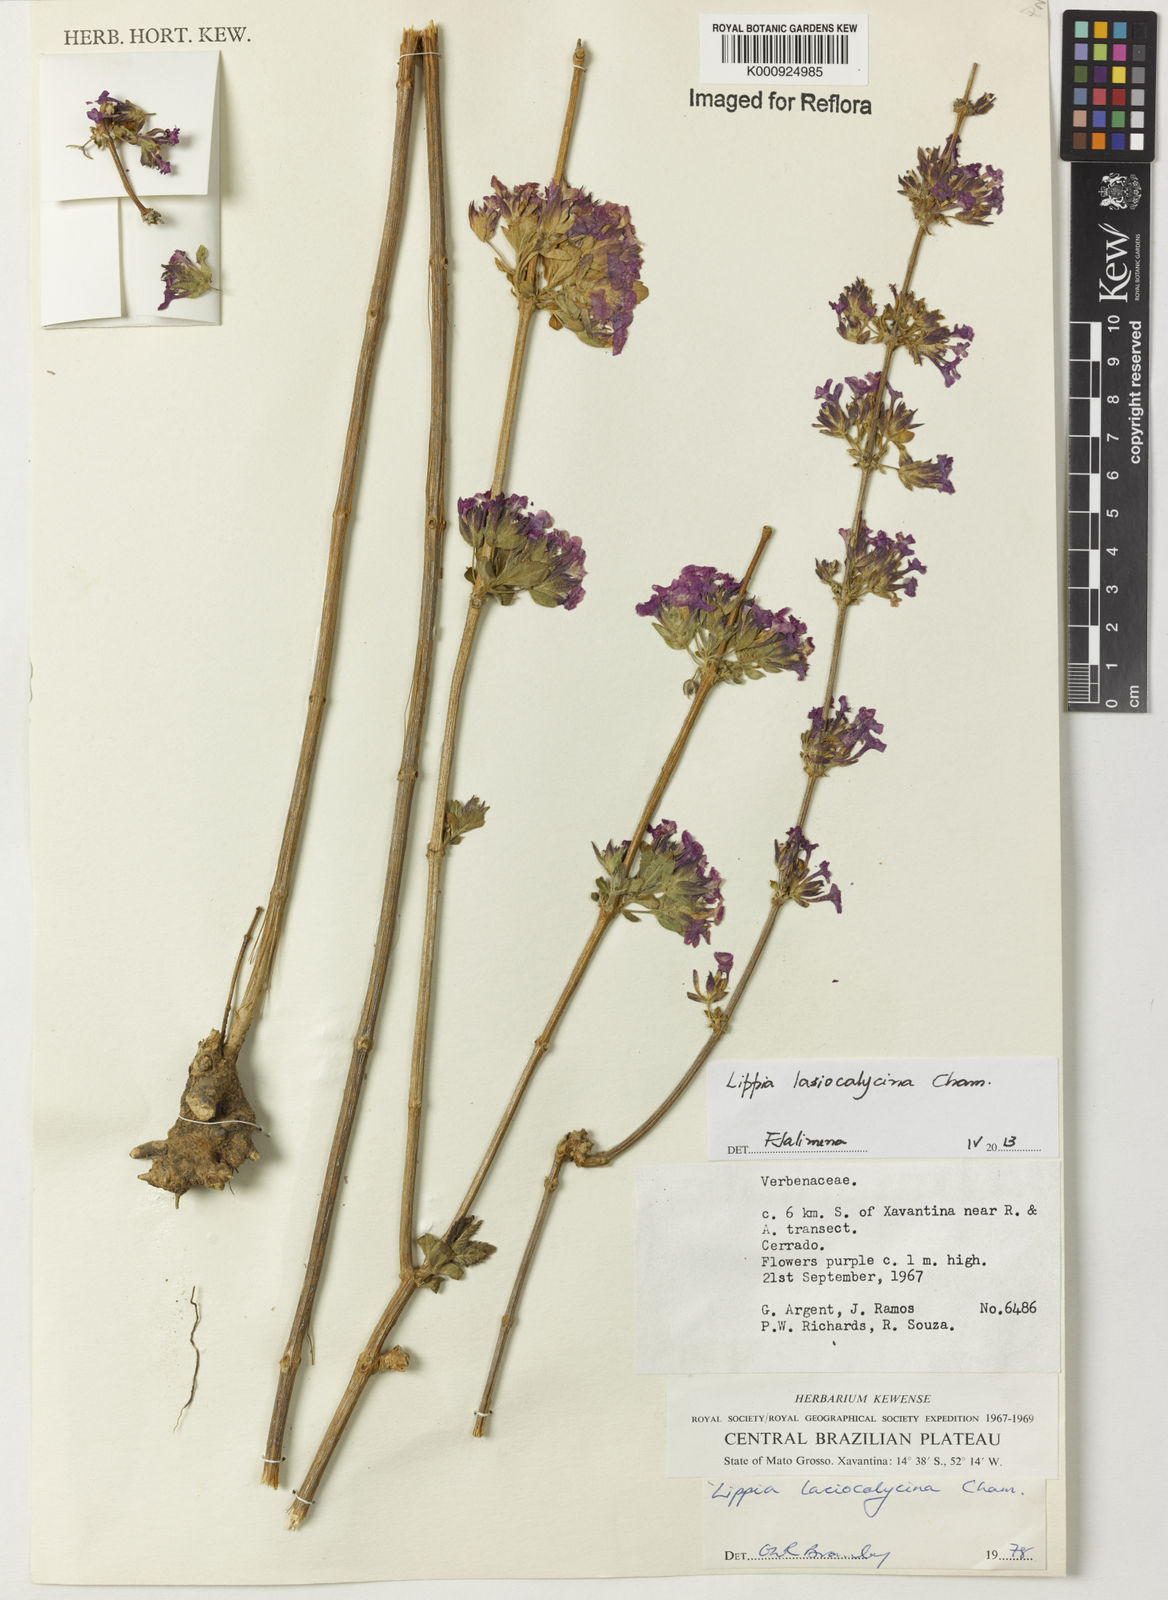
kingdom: Plantae
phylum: Tracheophyta
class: Magnoliopsida
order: Lamiales
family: Verbenaceae
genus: Lippia
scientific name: Lippia lasiocalycina
